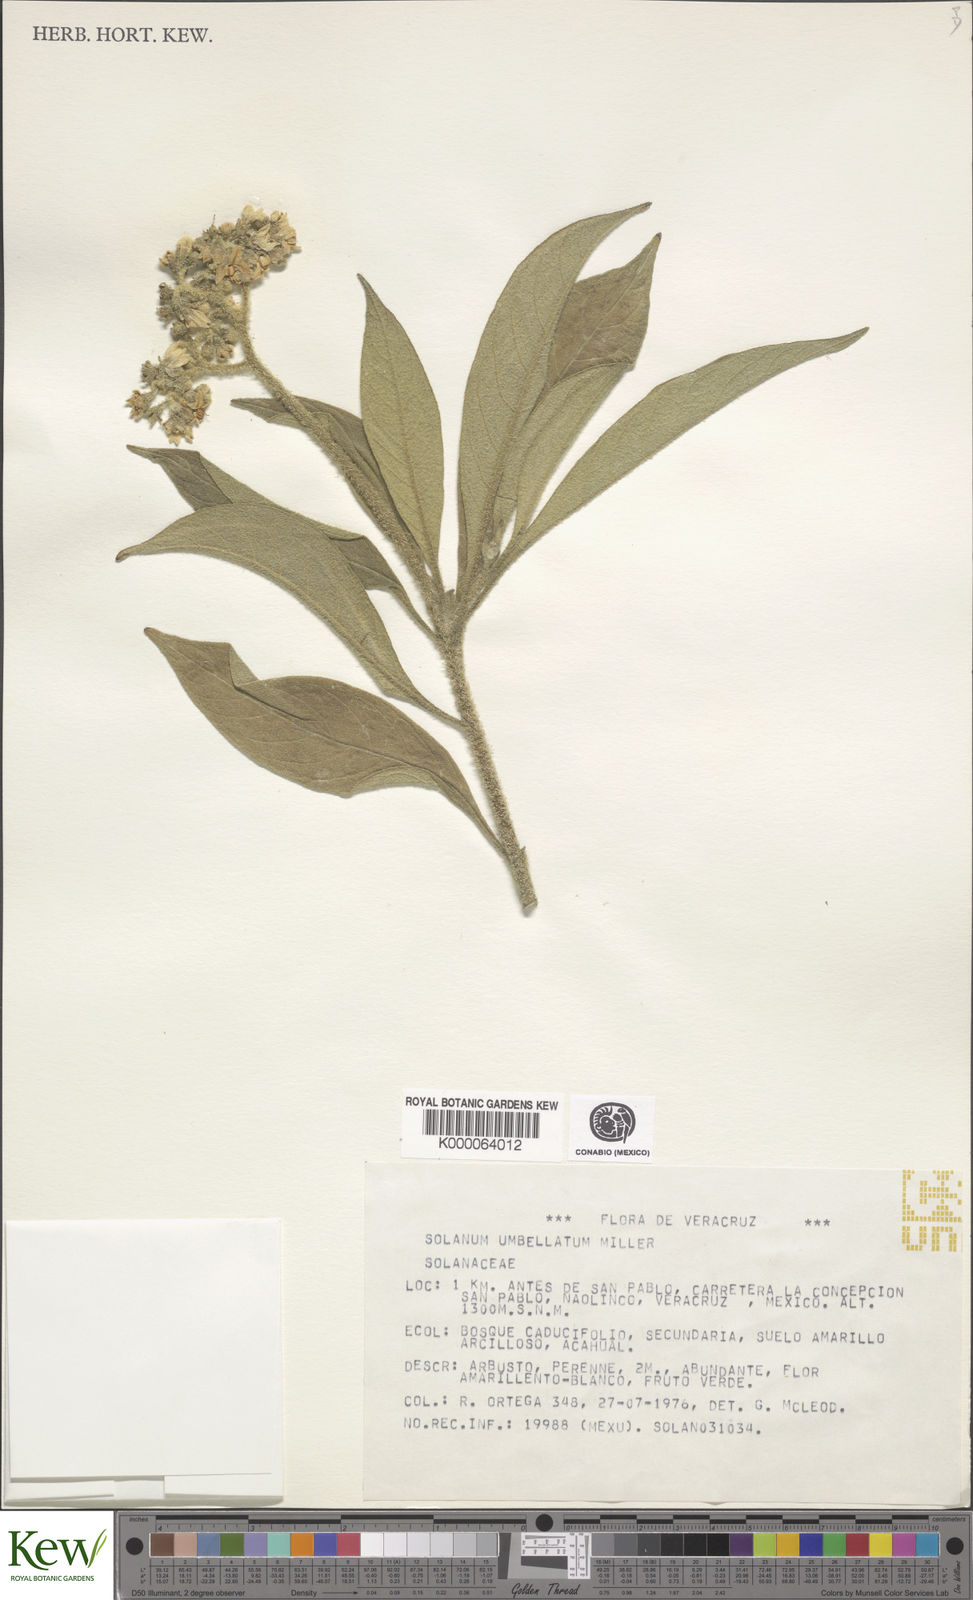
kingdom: Plantae
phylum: Tracheophyta
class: Magnoliopsida
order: Solanales
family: Solanaceae
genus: Solanum
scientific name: Solanum umbellatum
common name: Nightshade
